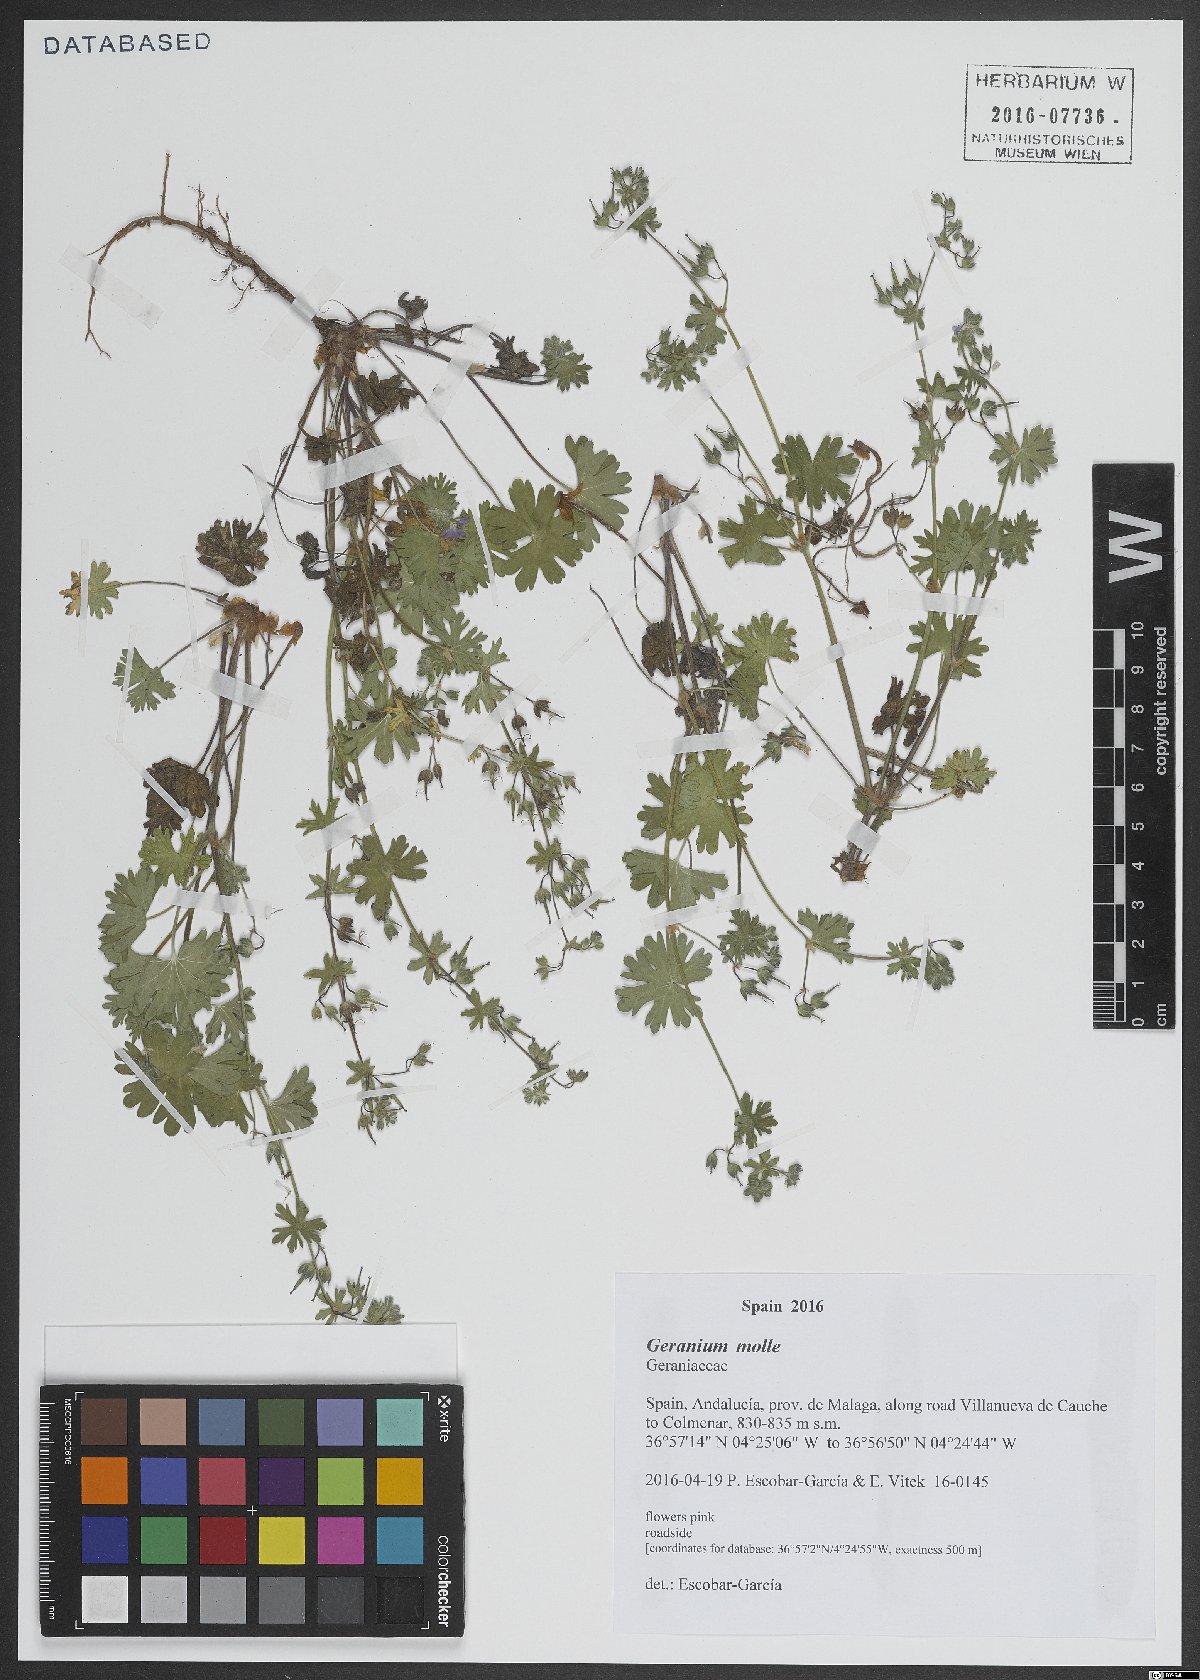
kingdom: Plantae
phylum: Tracheophyta
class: Magnoliopsida
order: Geraniales
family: Geraniaceae
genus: Geranium
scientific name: Geranium molle
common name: Dove's-foot crane's-bill
